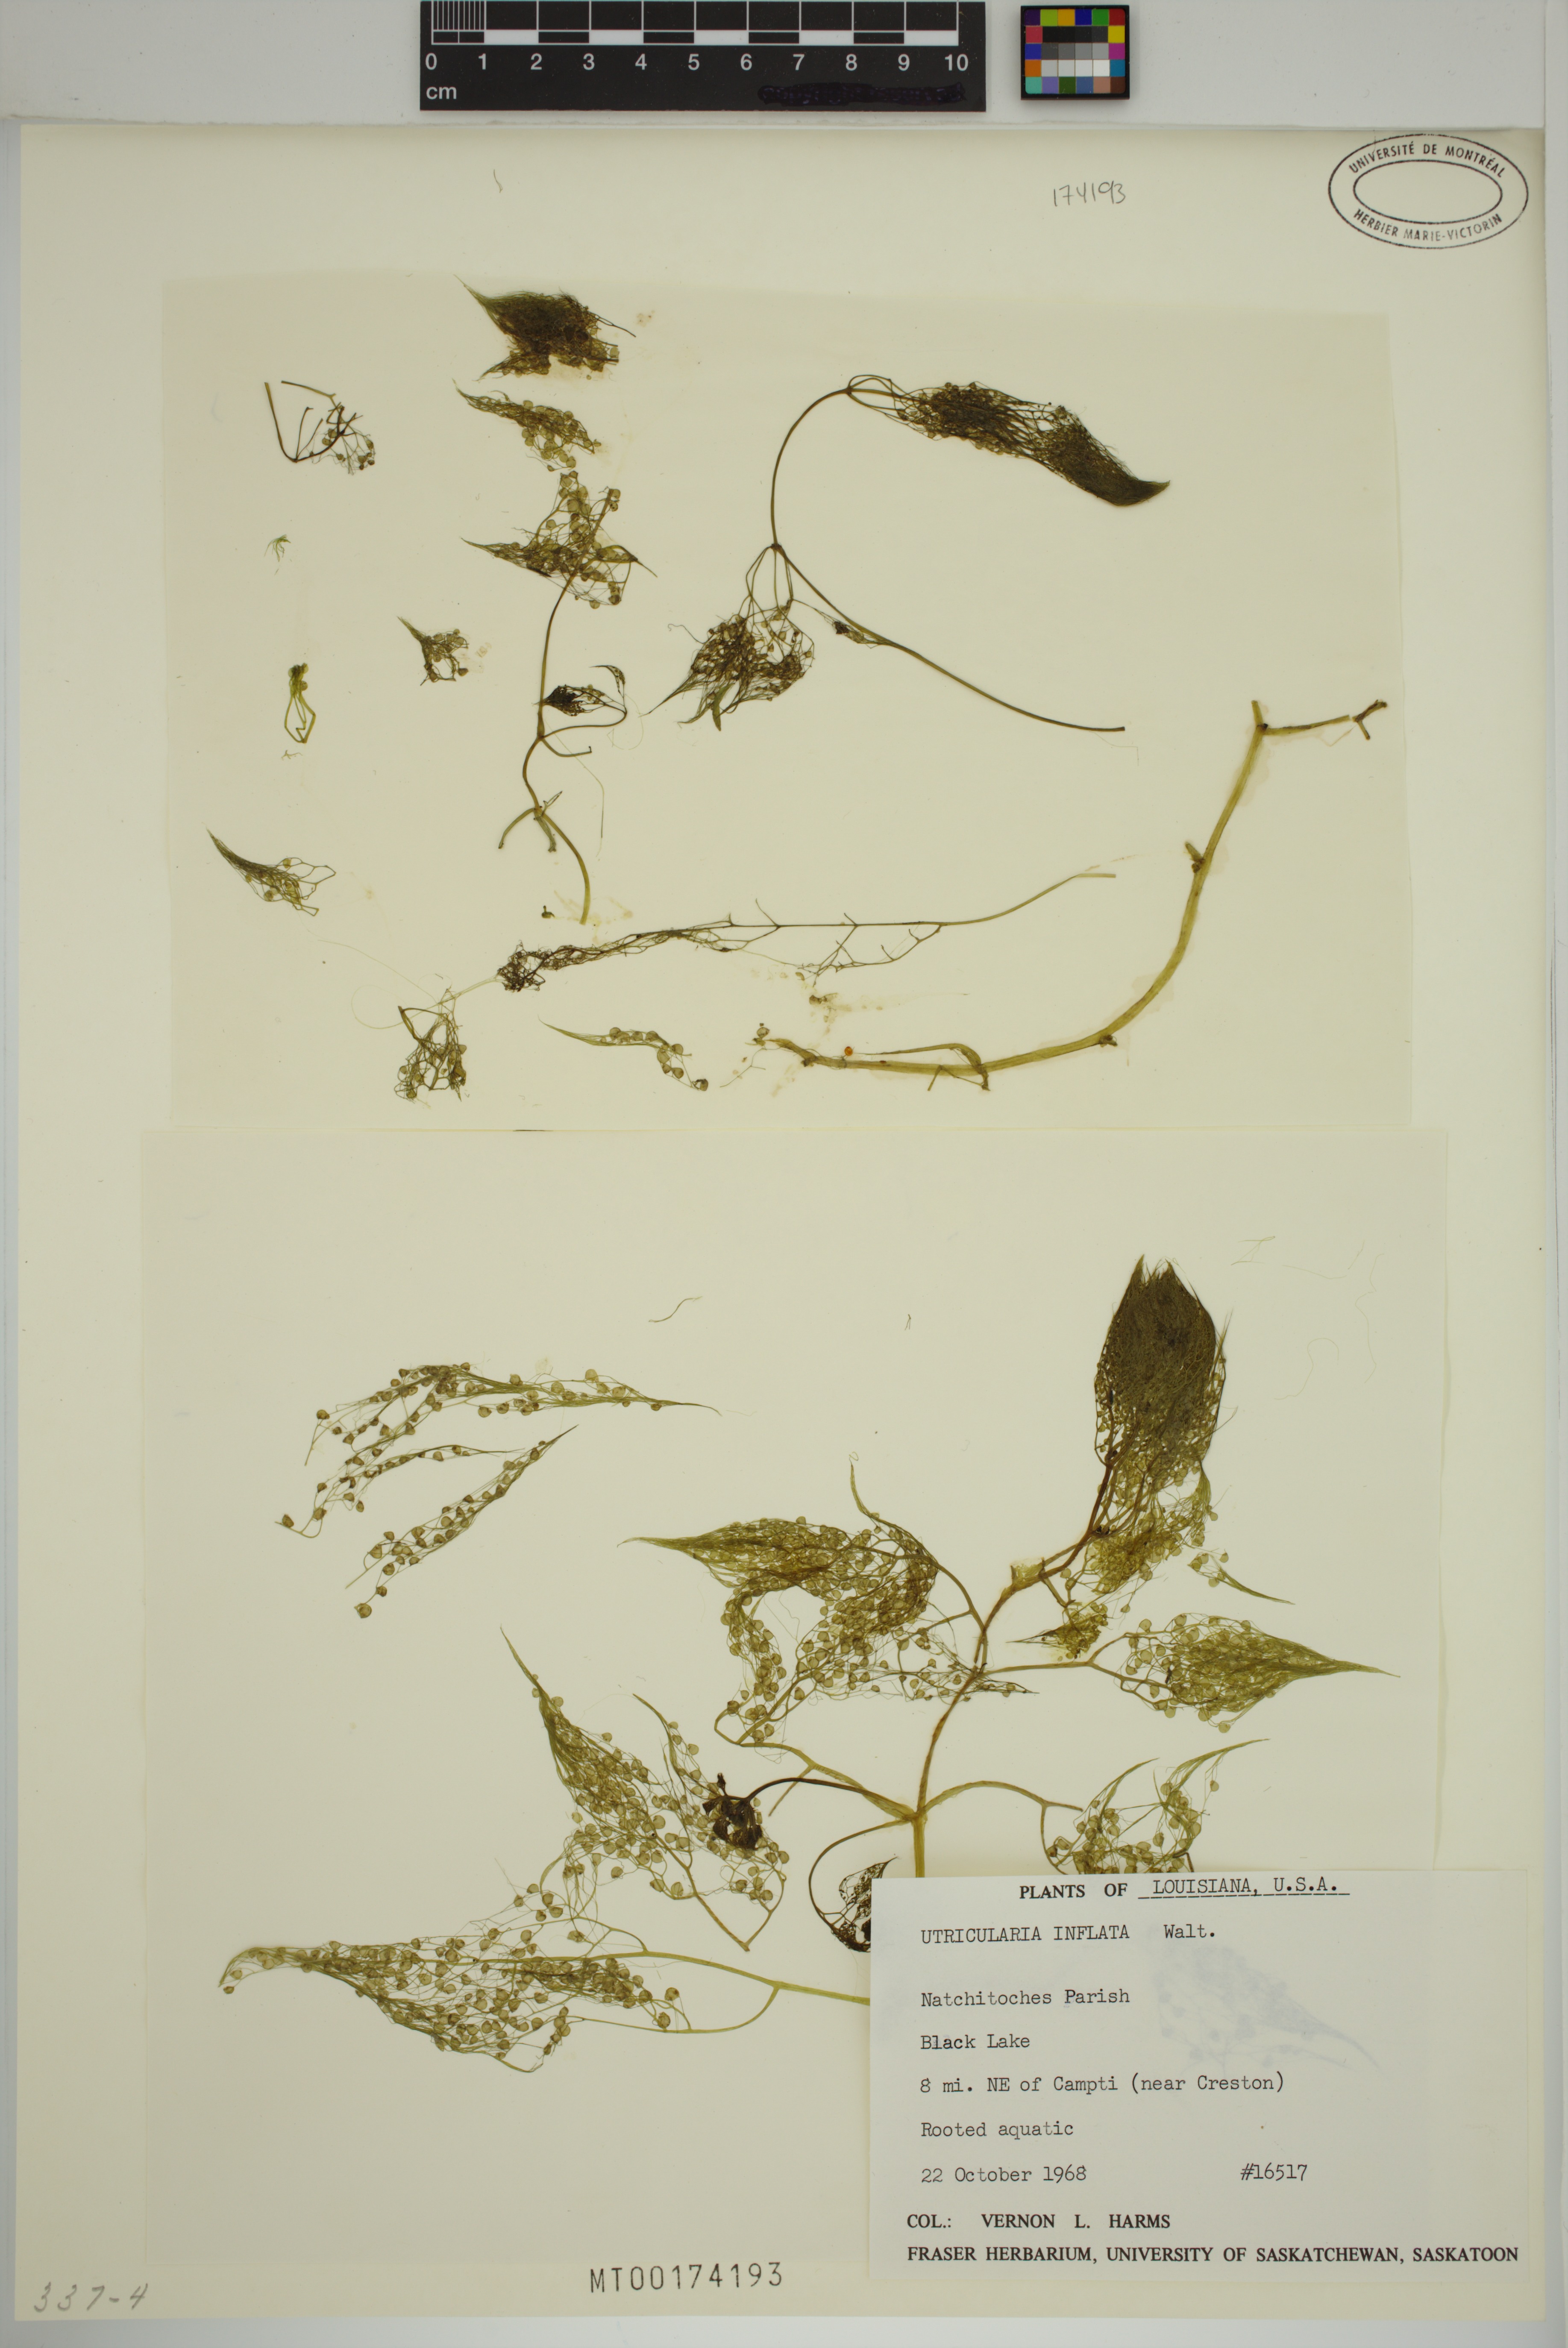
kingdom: Plantae
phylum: Tracheophyta
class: Magnoliopsida
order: Lamiales
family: Lentibulariaceae
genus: Utricularia
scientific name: Utricularia inflata
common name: Floating bladderwort
